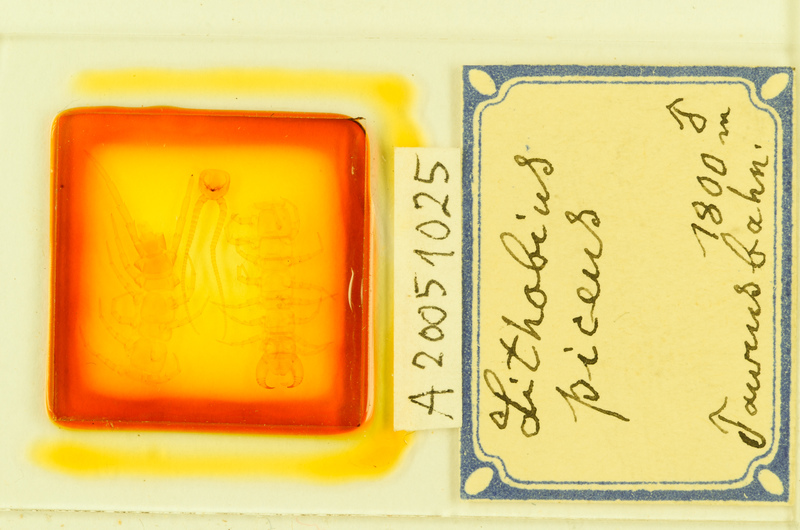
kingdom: Animalia
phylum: Arthropoda
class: Chilopoda
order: Lithobiomorpha
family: Lithobiidae
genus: Lithobius
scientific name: Lithobius piceus
